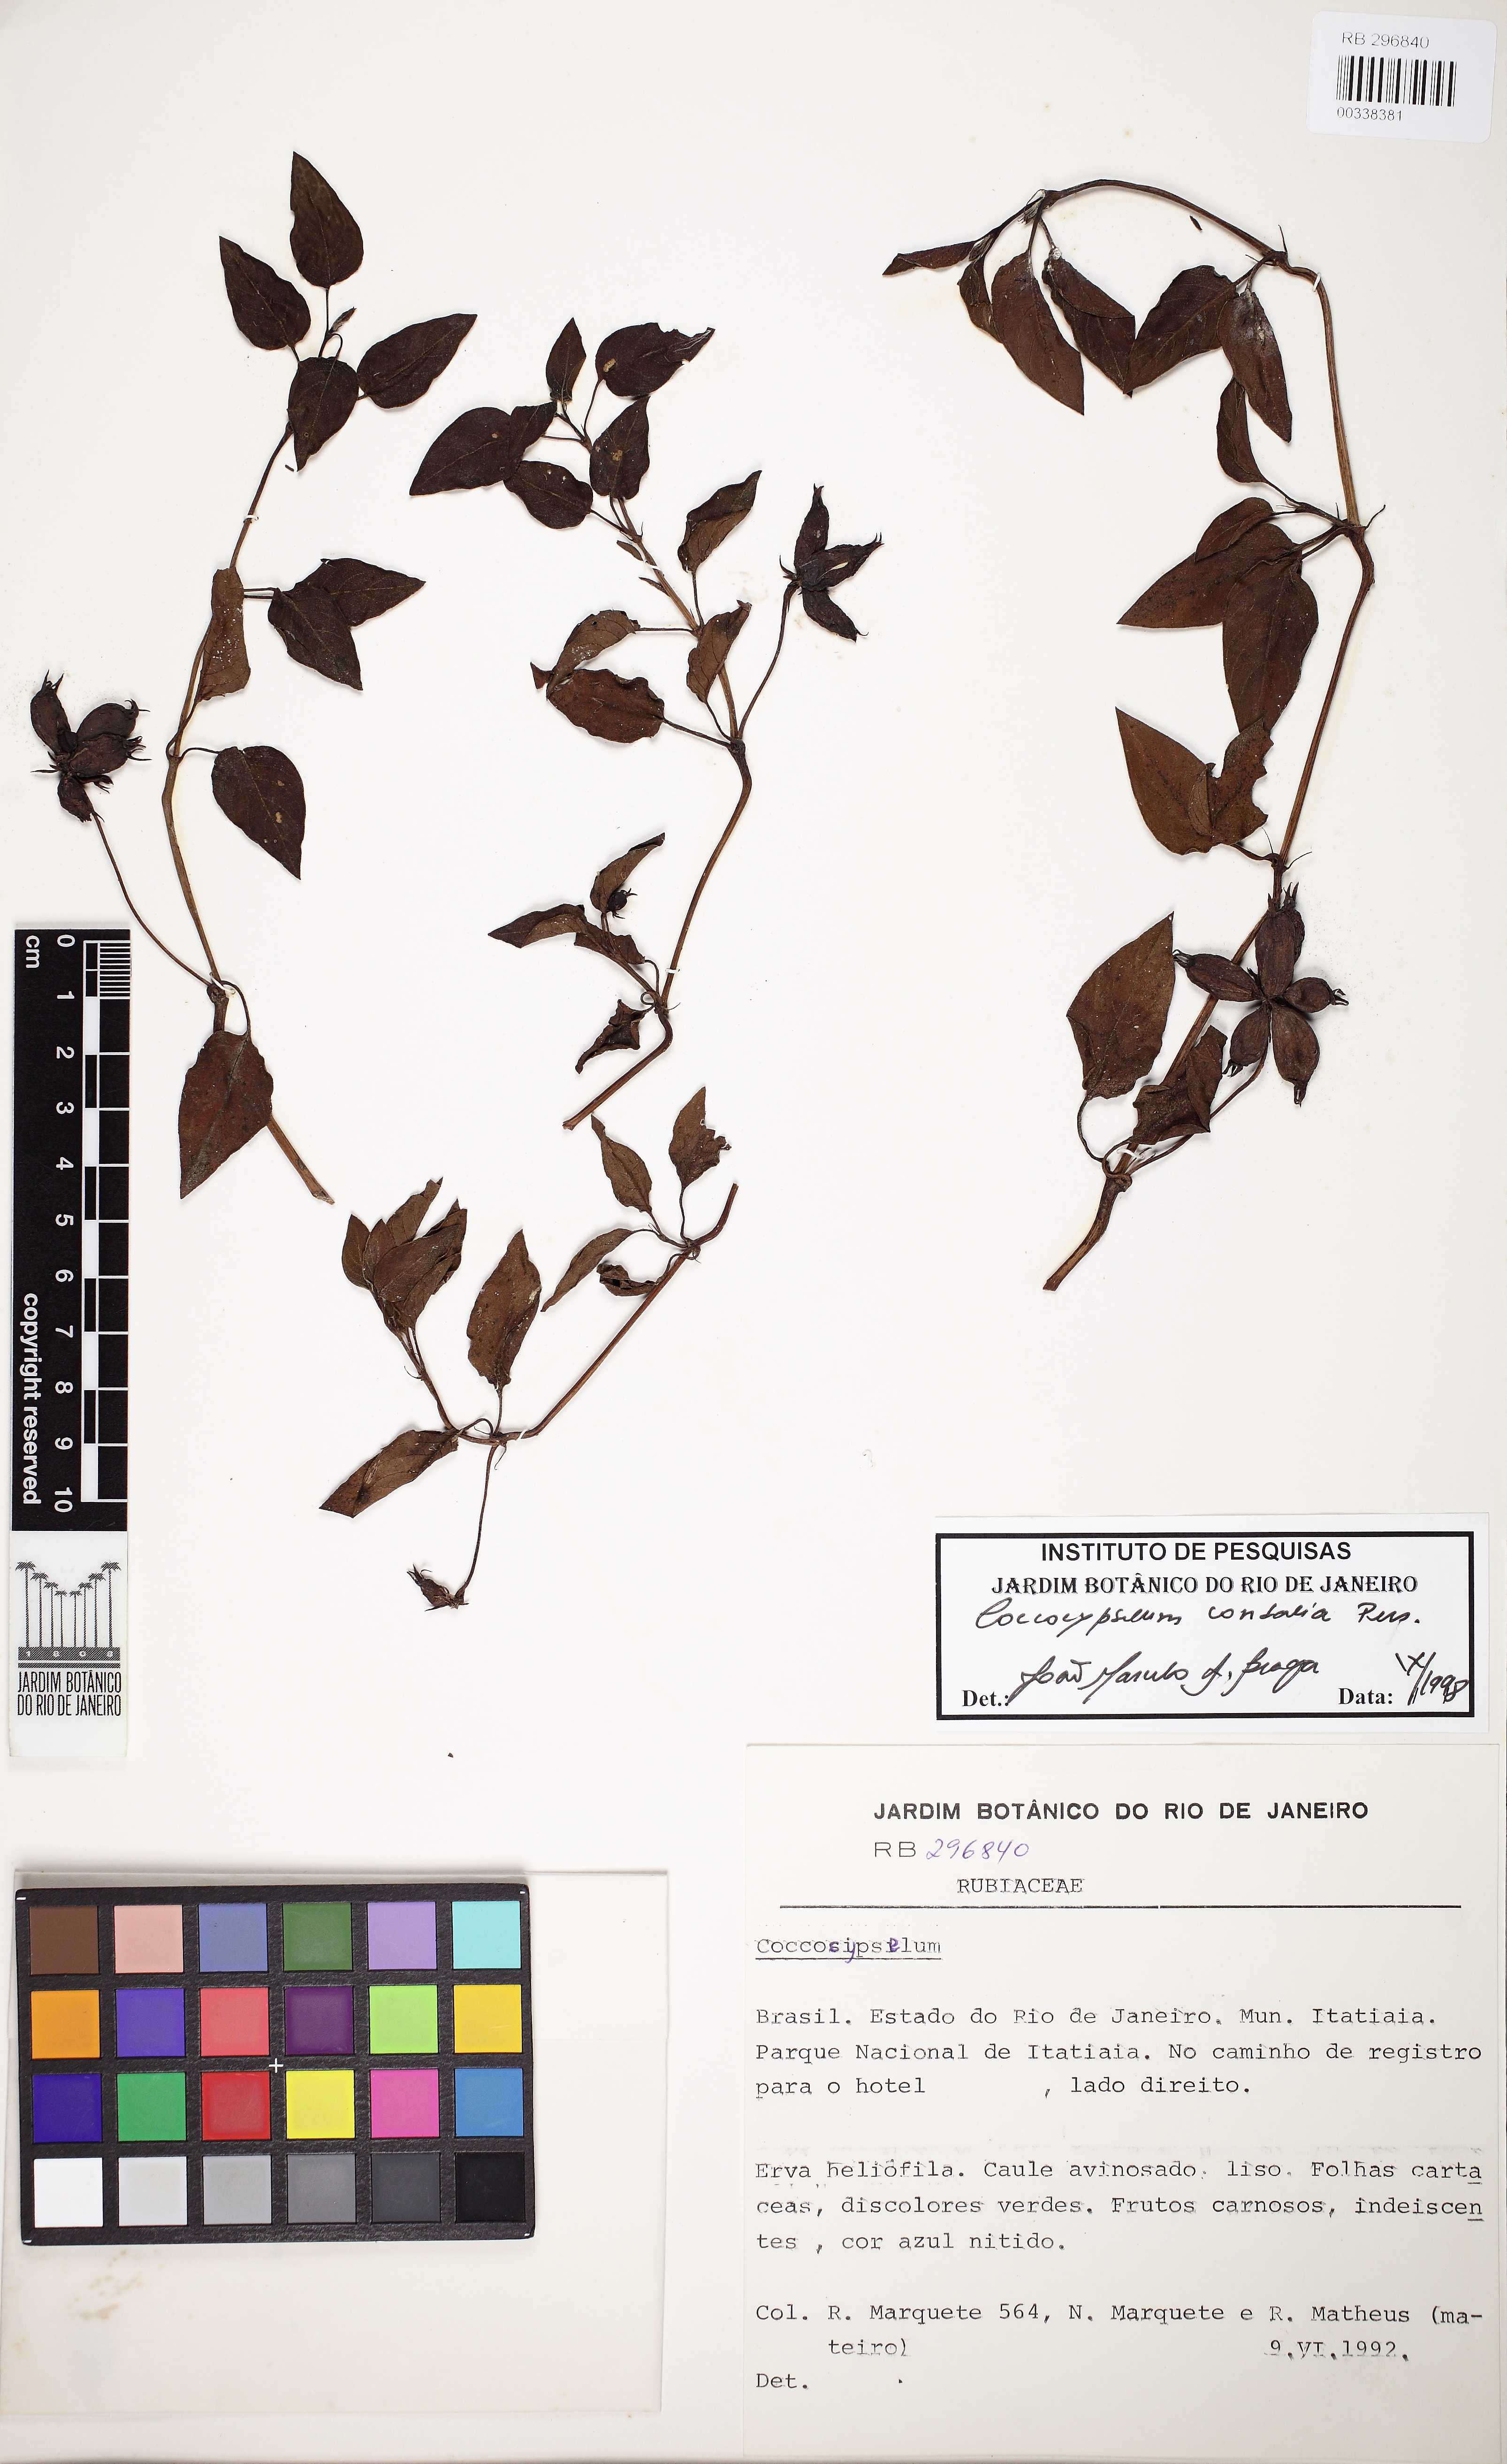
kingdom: Plantae
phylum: Tracheophyta
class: Magnoliopsida
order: Gentianales
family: Rubiaceae
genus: Coccocypselum
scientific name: Coccocypselum condalia
